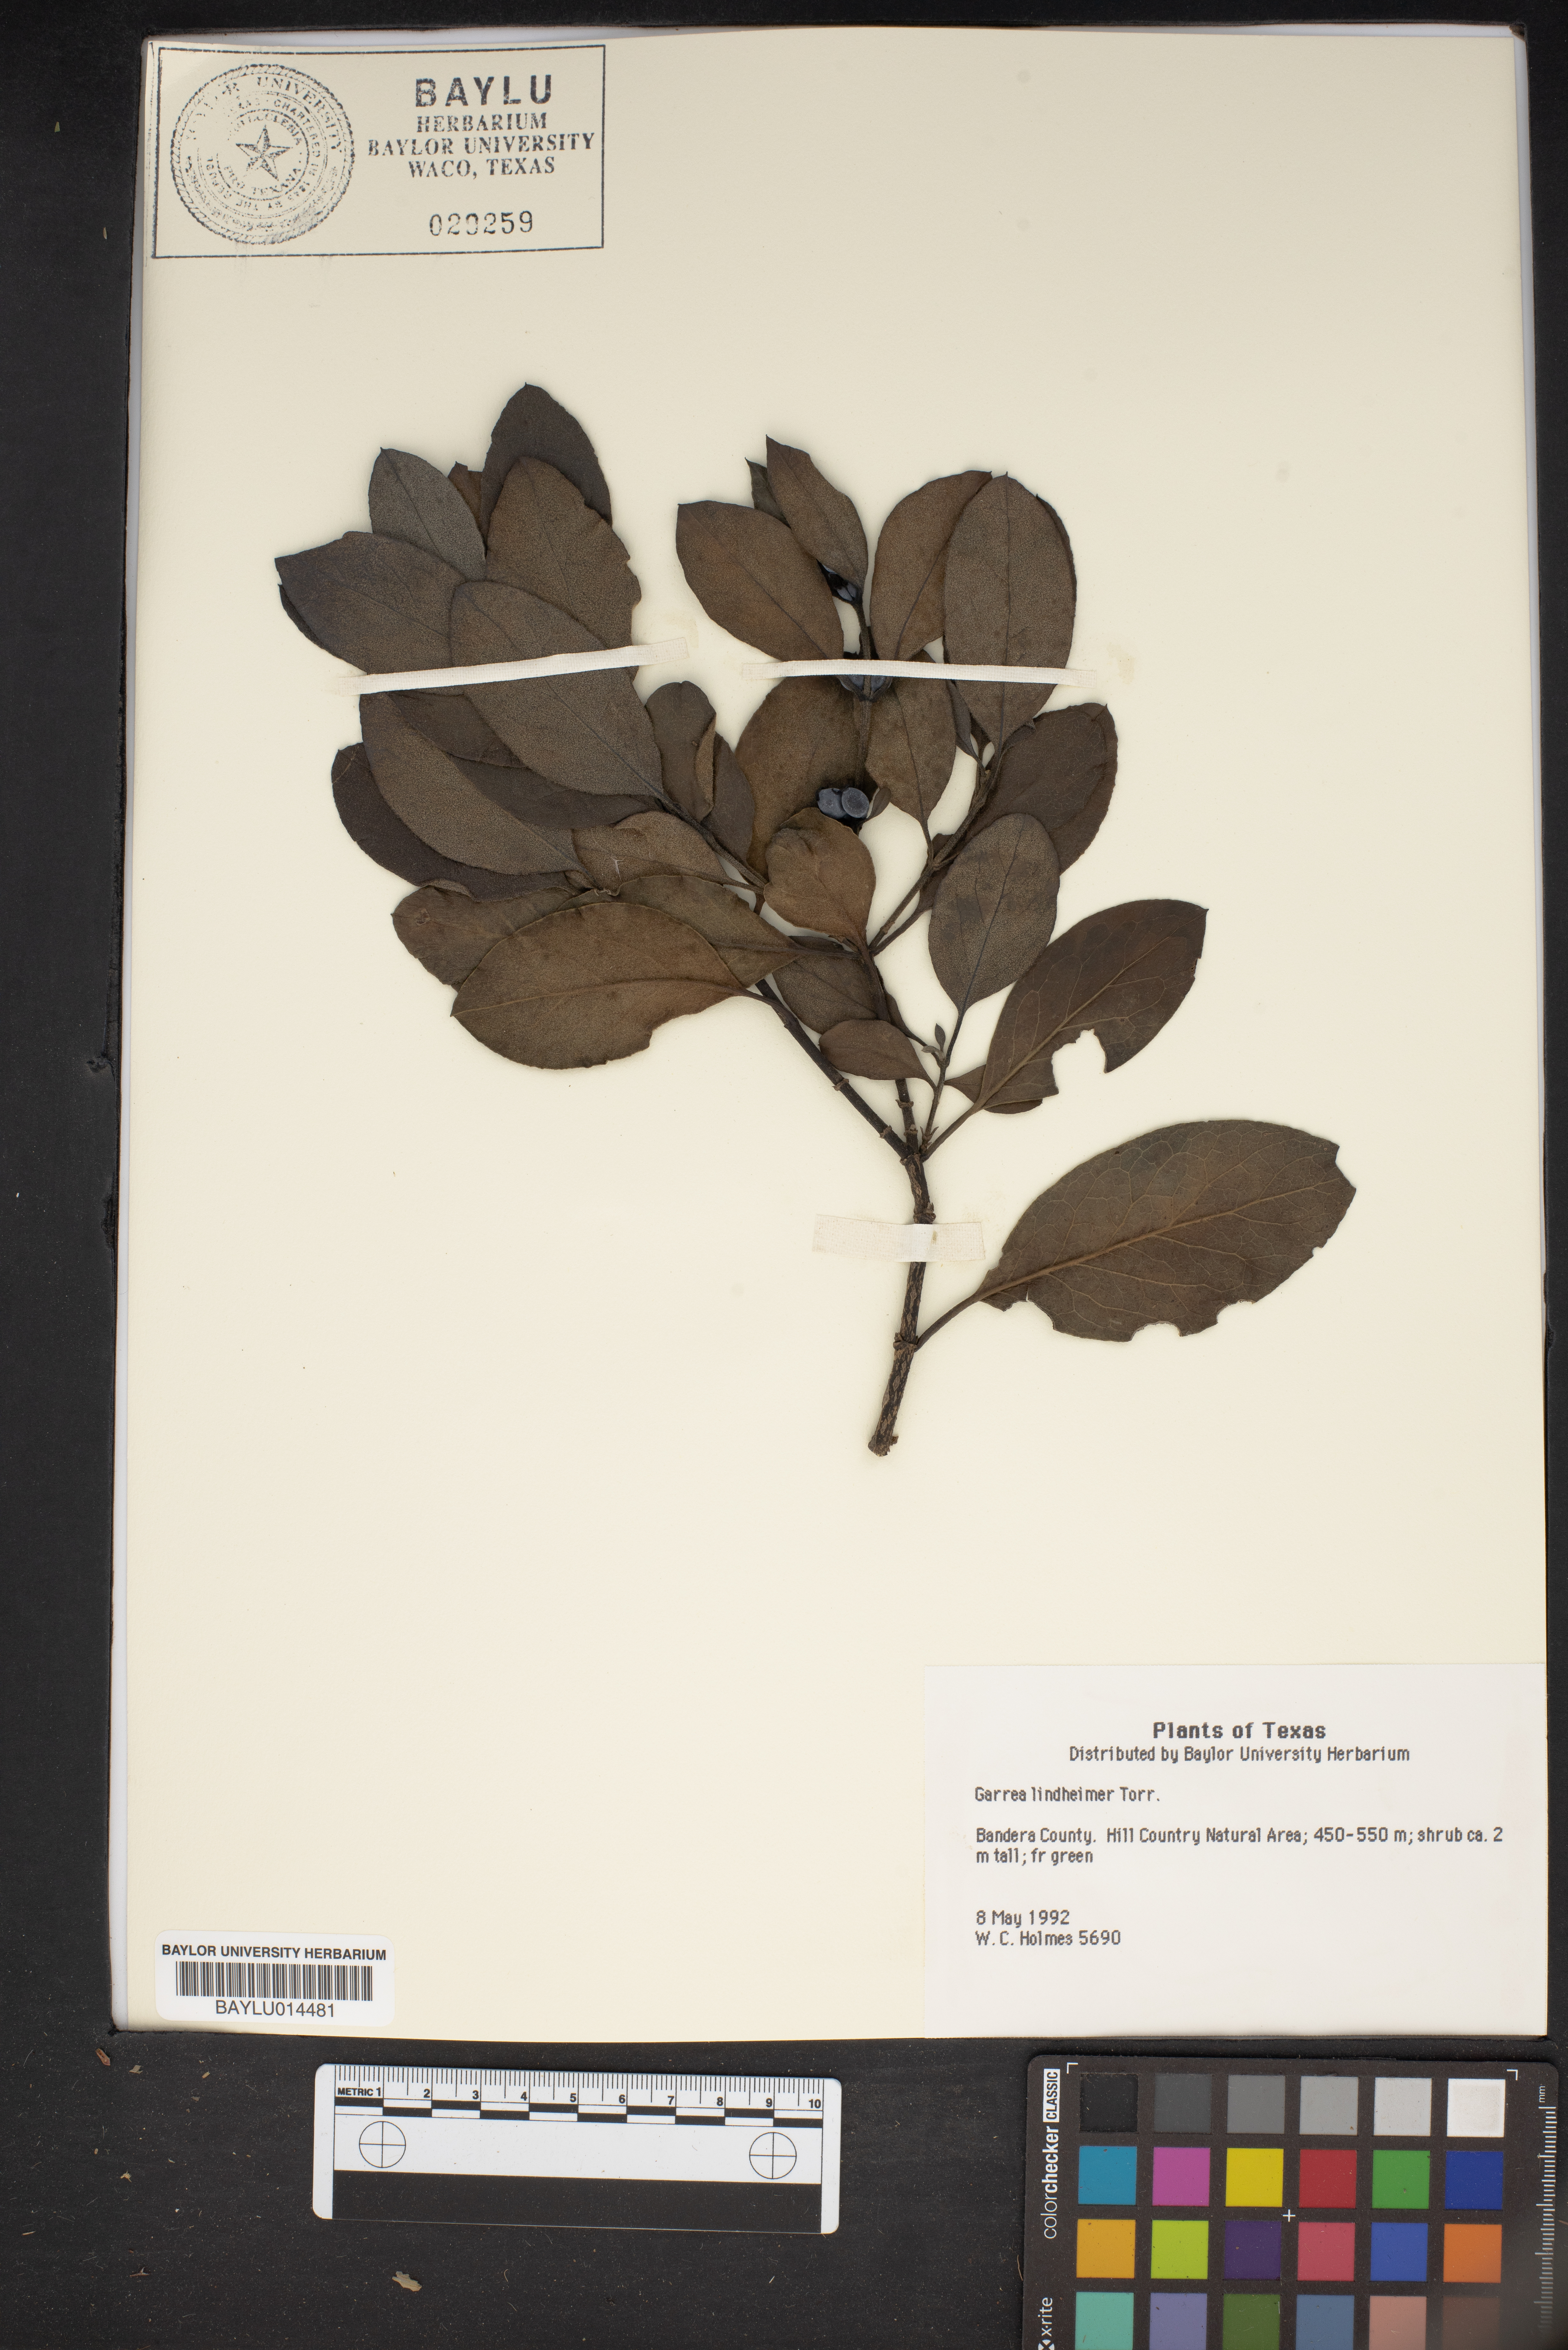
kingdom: Plantae
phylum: Tracheophyta
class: Magnoliopsida
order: Garryales
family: Garryaceae
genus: Garrya
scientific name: Garrya lindheimeri
